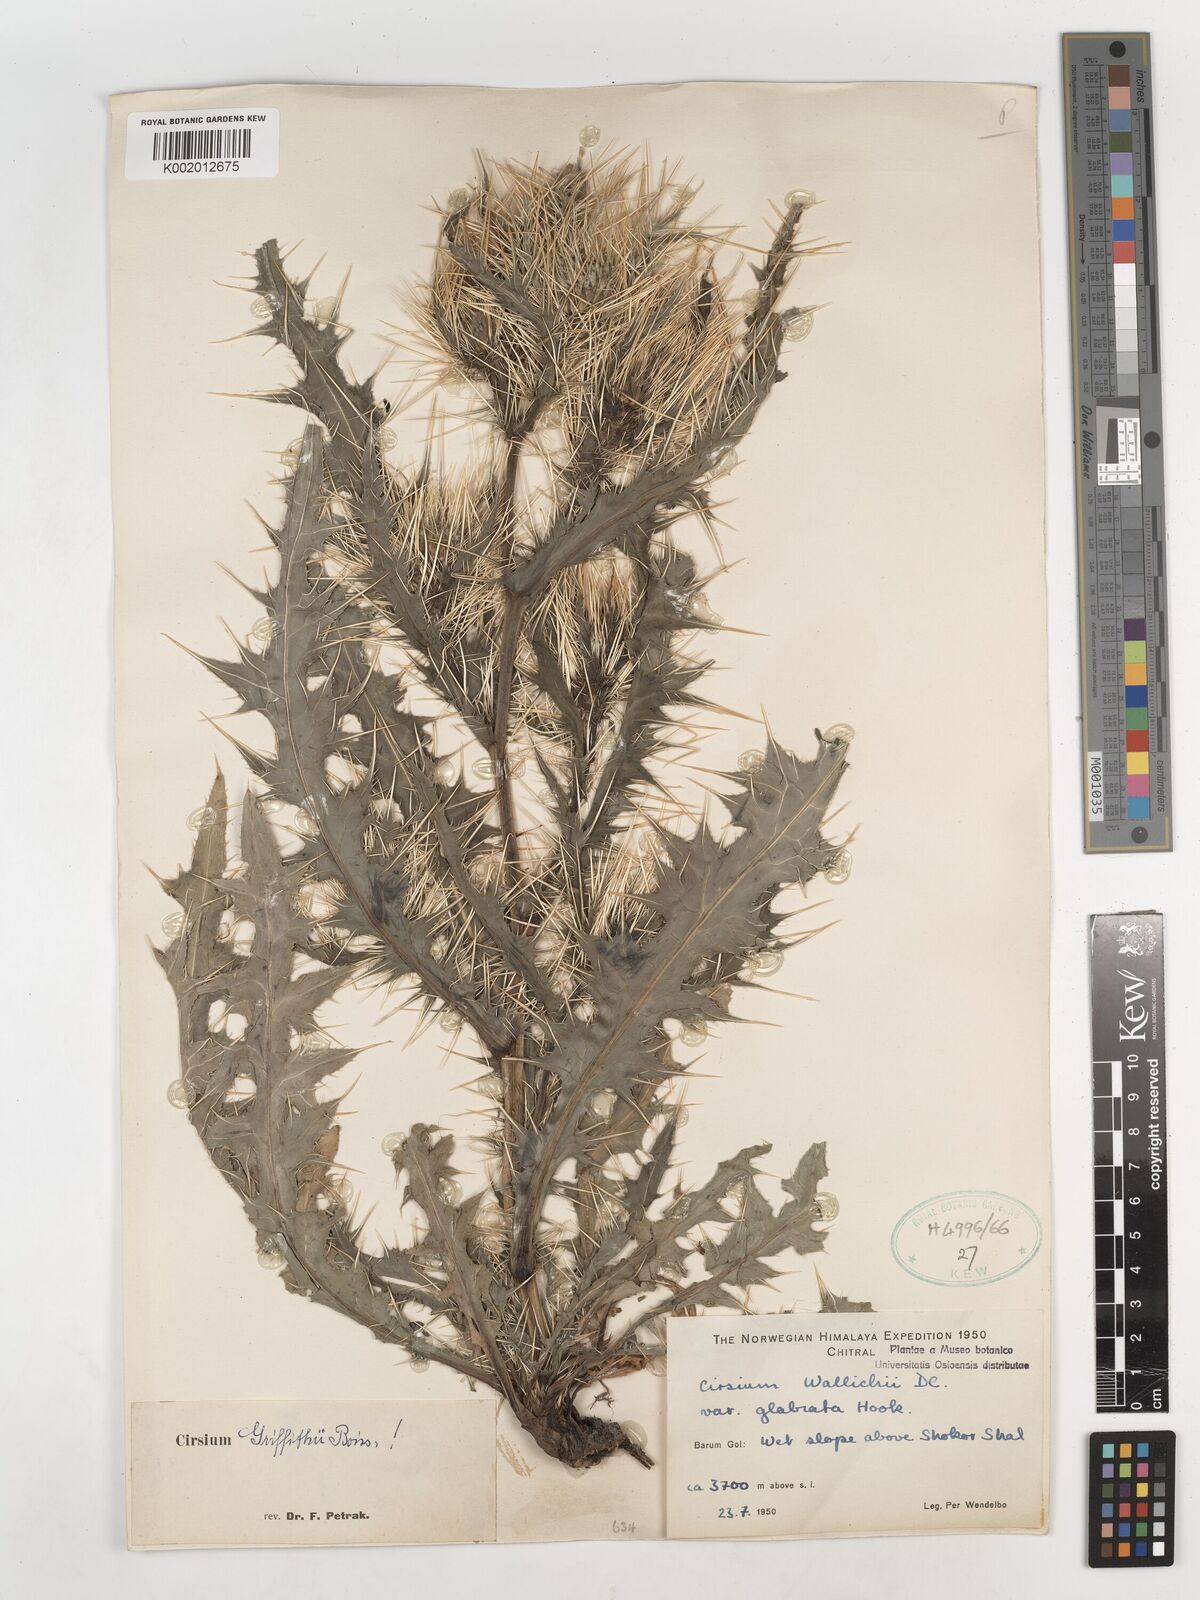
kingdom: Plantae
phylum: Tracheophyta
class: Magnoliopsida
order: Asterales
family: Asteraceae
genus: Lophiolepis
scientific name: Lophiolepis griffithii
